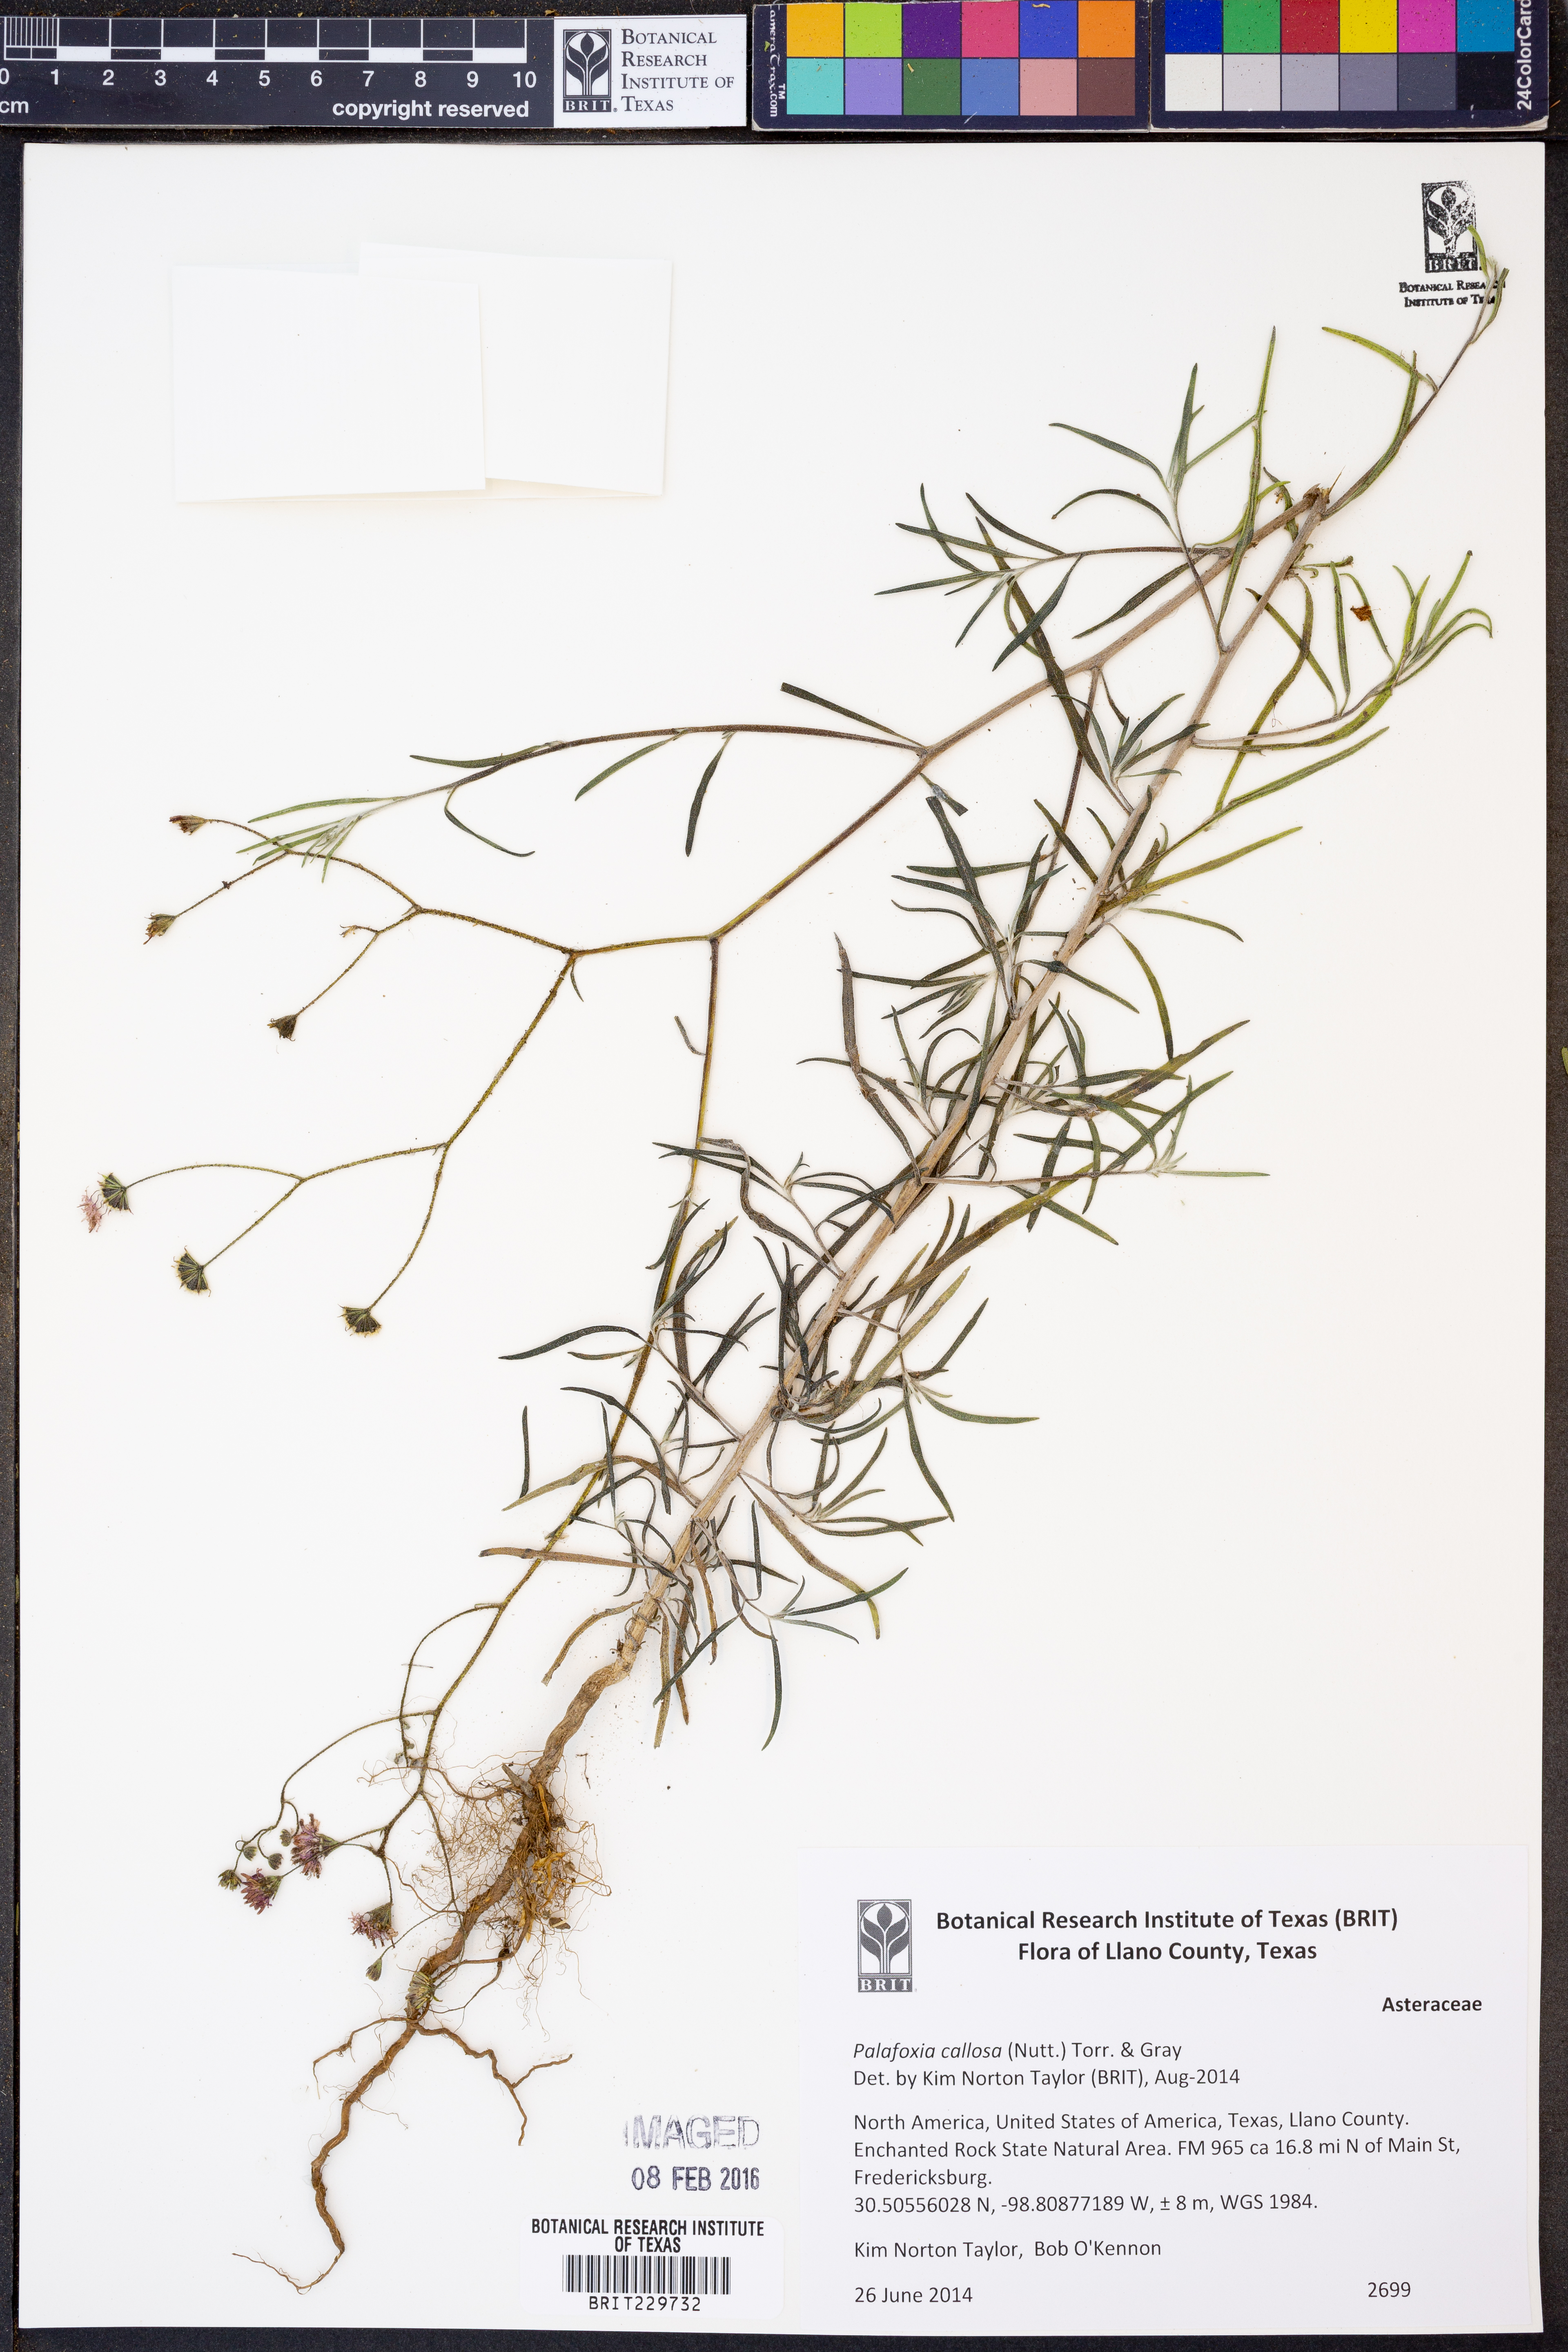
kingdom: Plantae
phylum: Tracheophyta
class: Magnoliopsida
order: Asterales
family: Asteraceae
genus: Palafoxia
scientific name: Palafoxia callosa
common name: Small palafox
